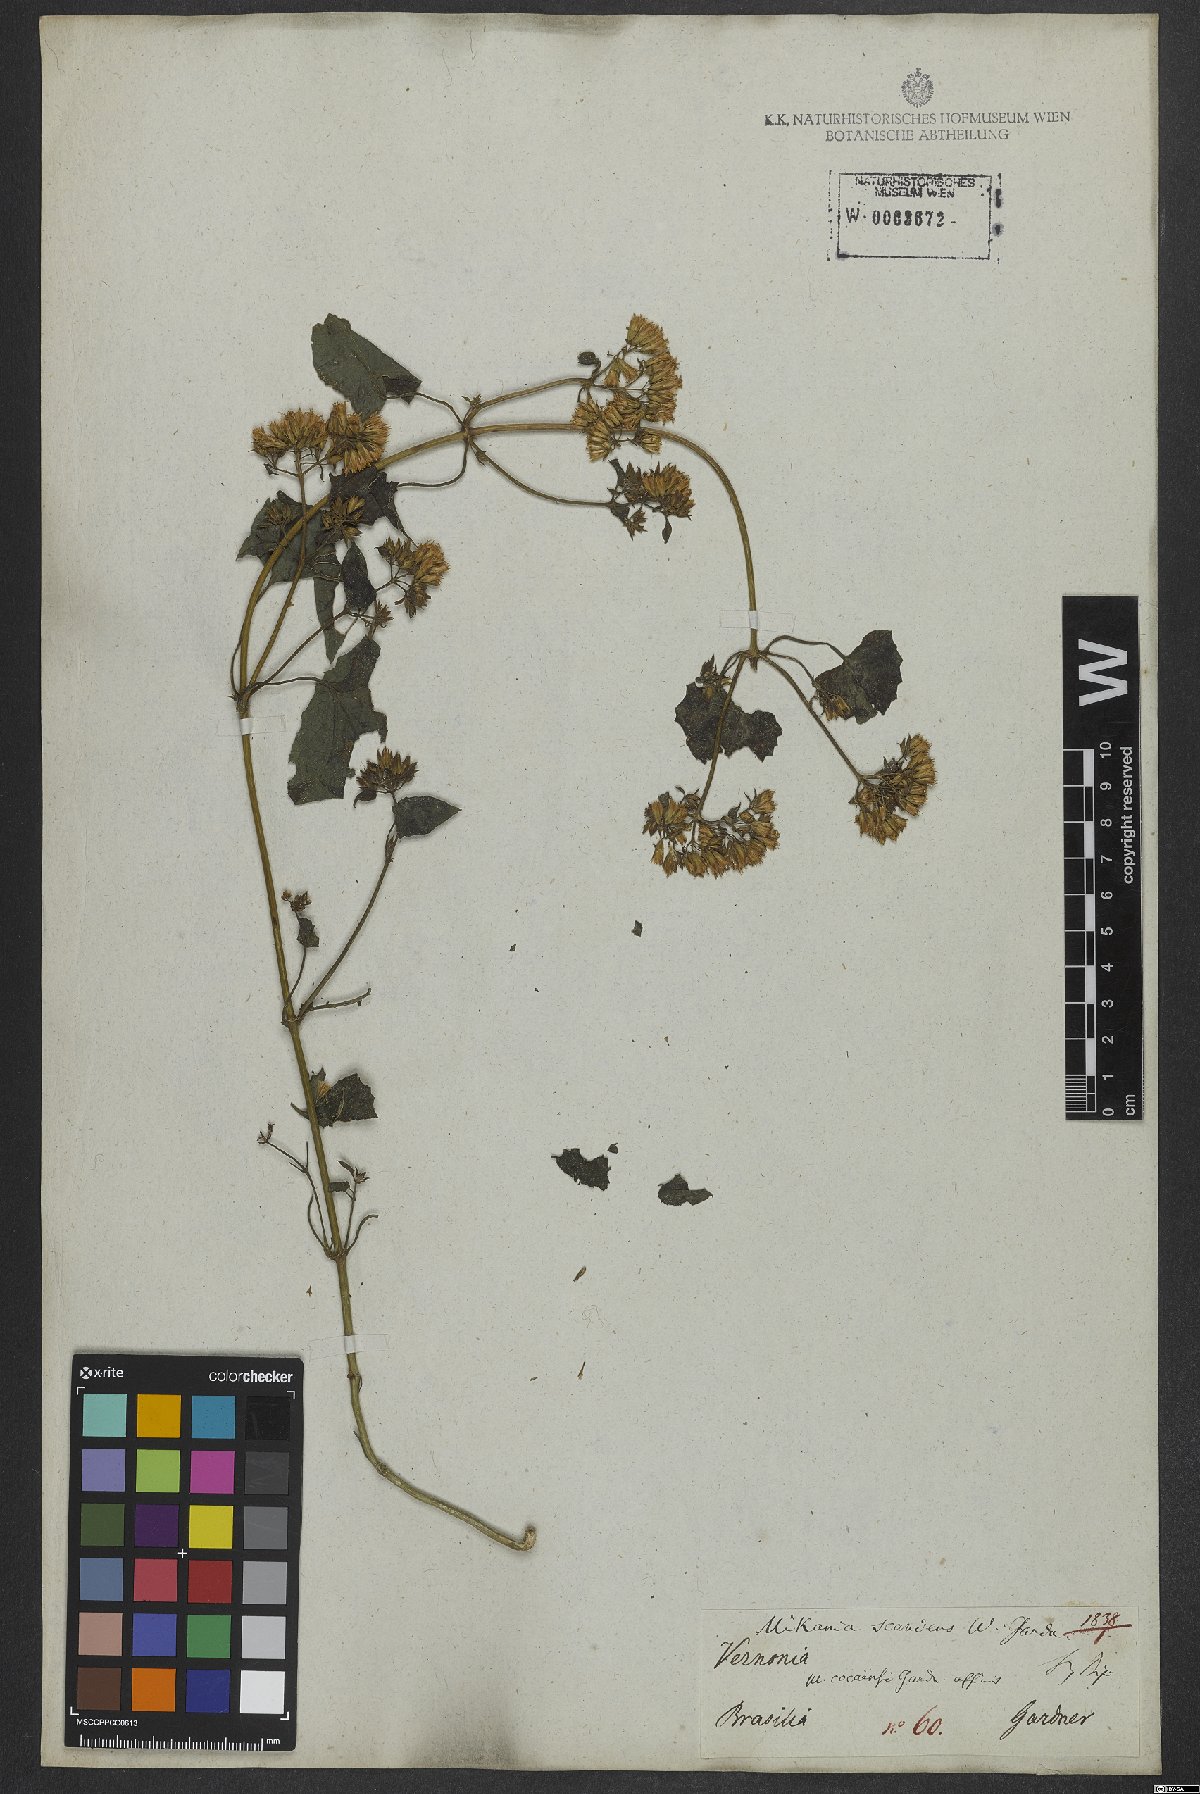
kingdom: Plantae
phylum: Tracheophyta
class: Magnoliopsida
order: Asterales
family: Asteraceae
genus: Mikania
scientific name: Mikania scandens
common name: Climbing hempvine
